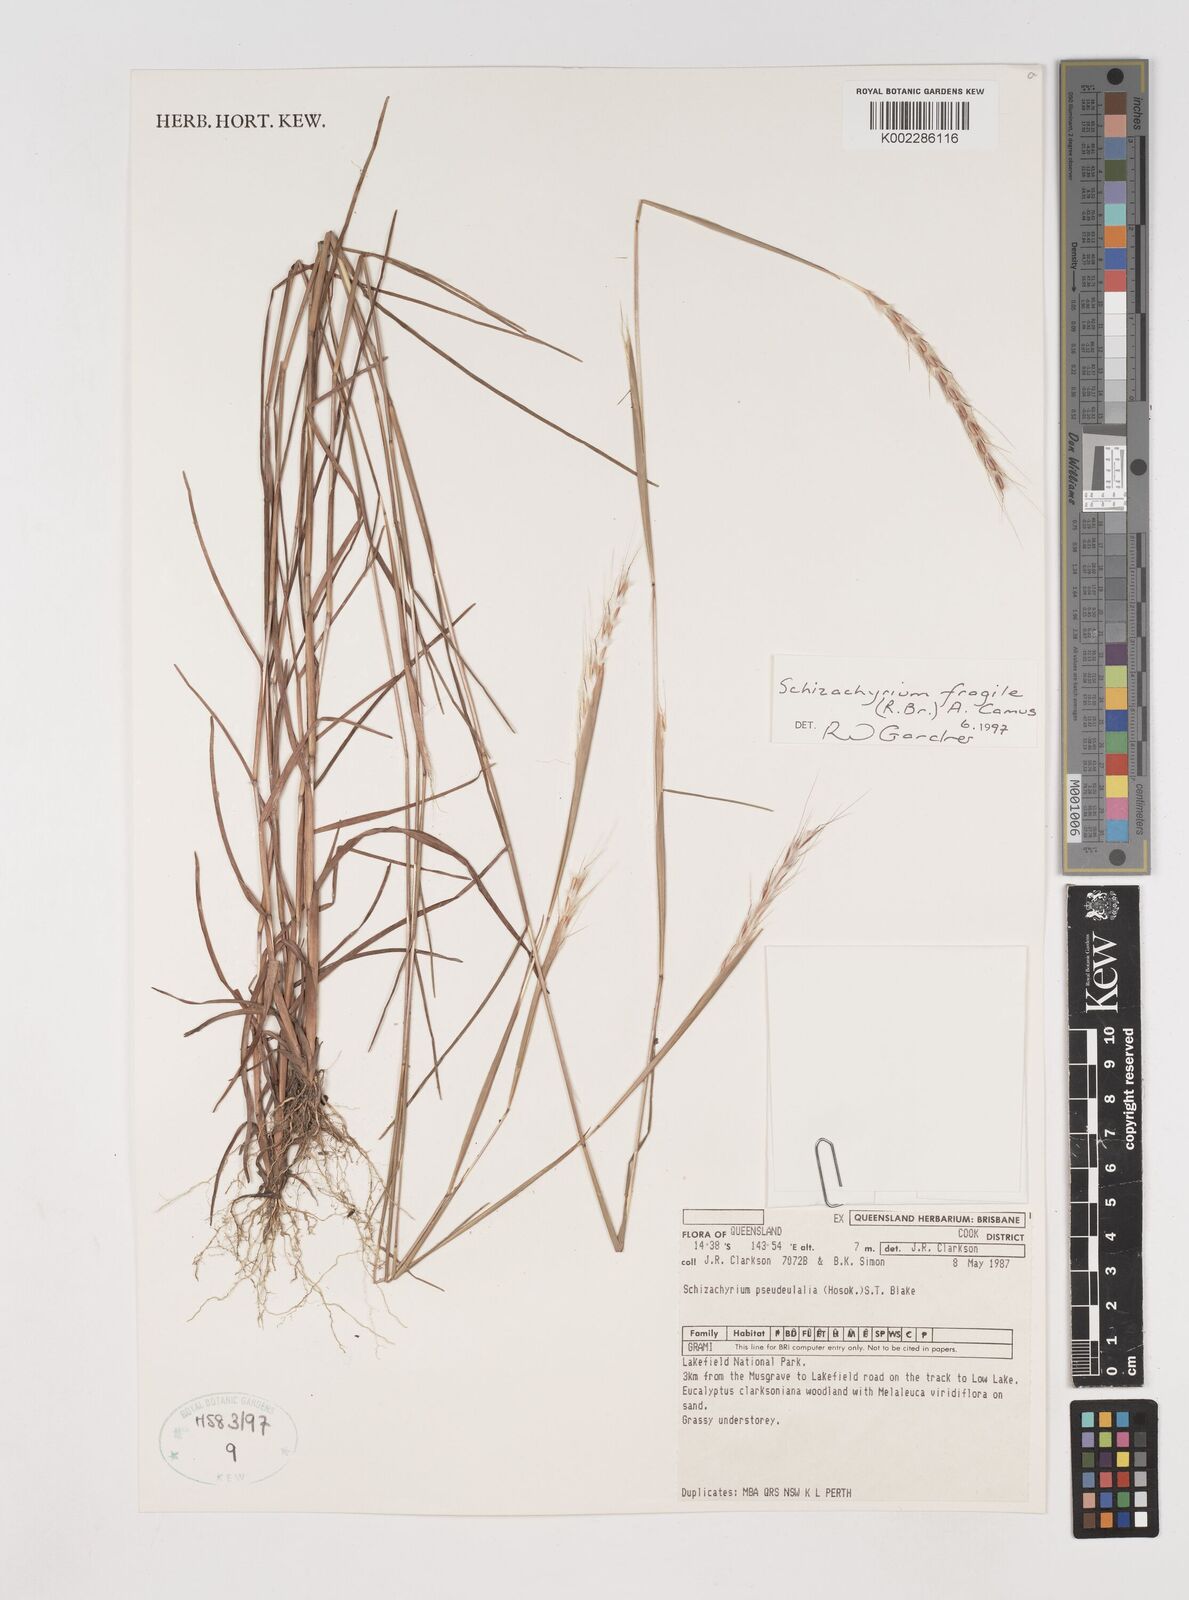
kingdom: Plantae
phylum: Tracheophyta
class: Liliopsida
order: Poales
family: Poaceae
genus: Schizachyrium
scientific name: Schizachyrium fragile
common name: Red spathe grass
